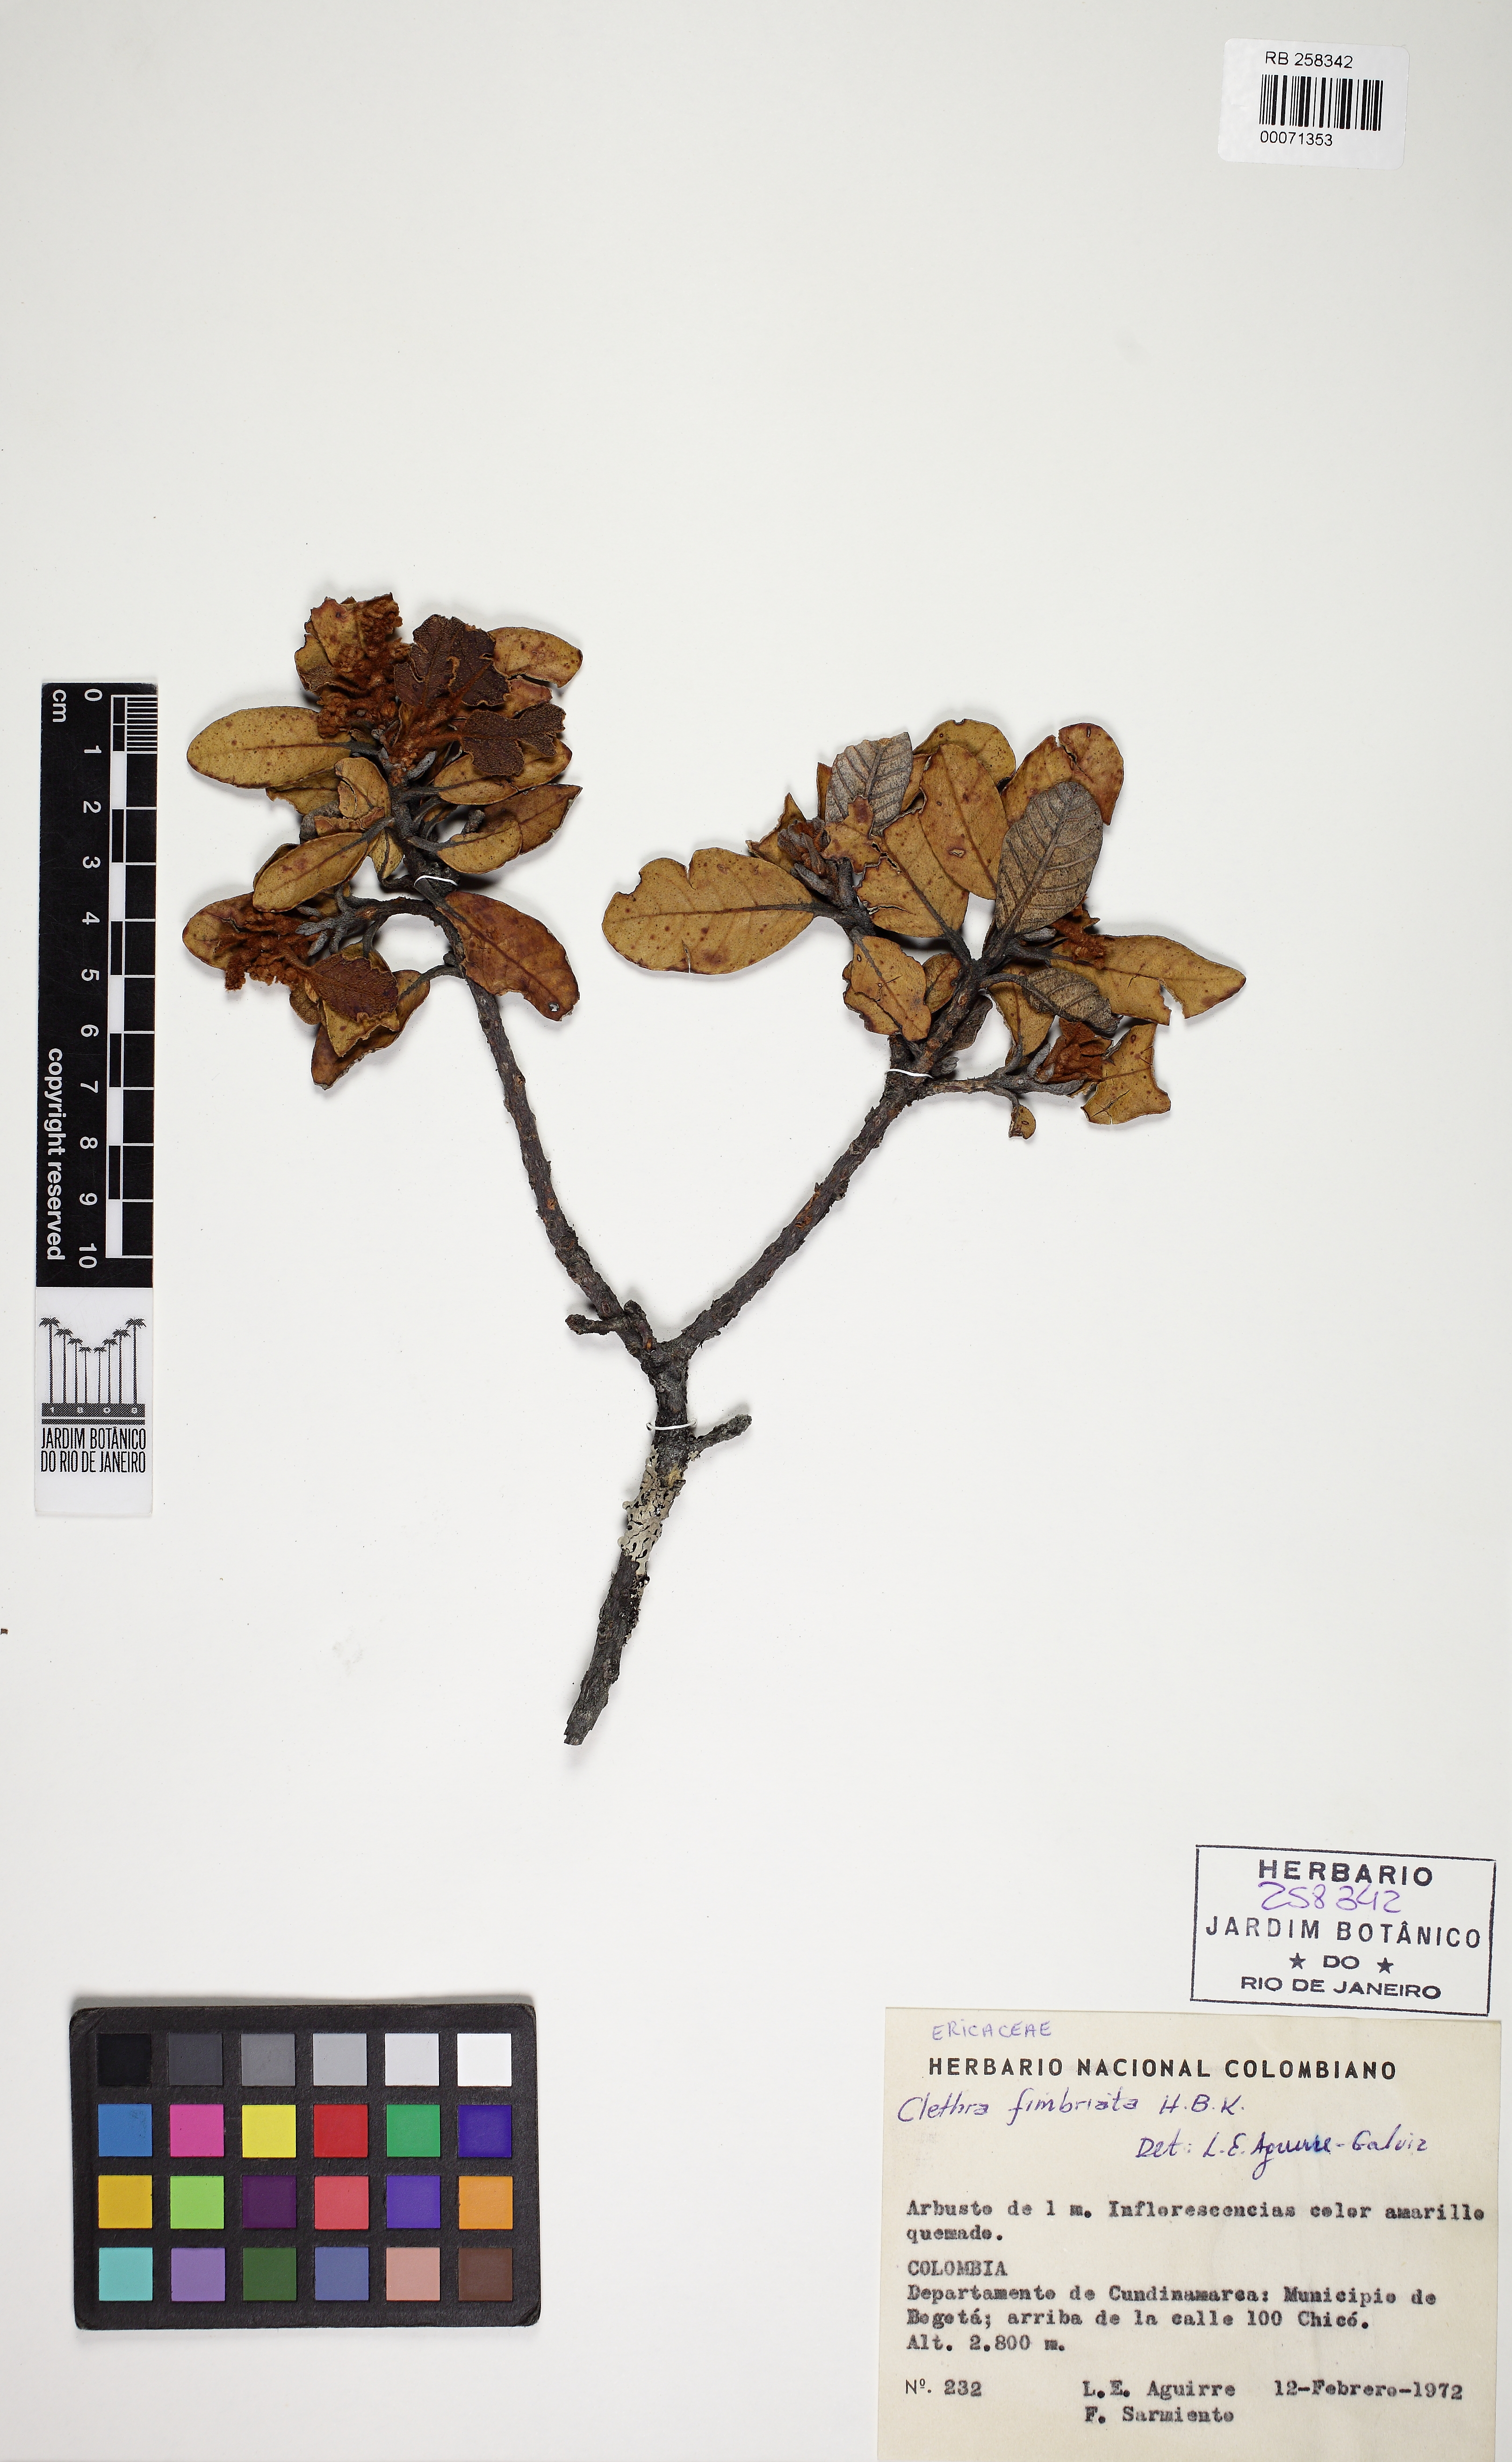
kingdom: Plantae
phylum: Tracheophyta
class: Magnoliopsida
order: Ericales
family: Clethraceae
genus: Clethra
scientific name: Clethra fimbriata
